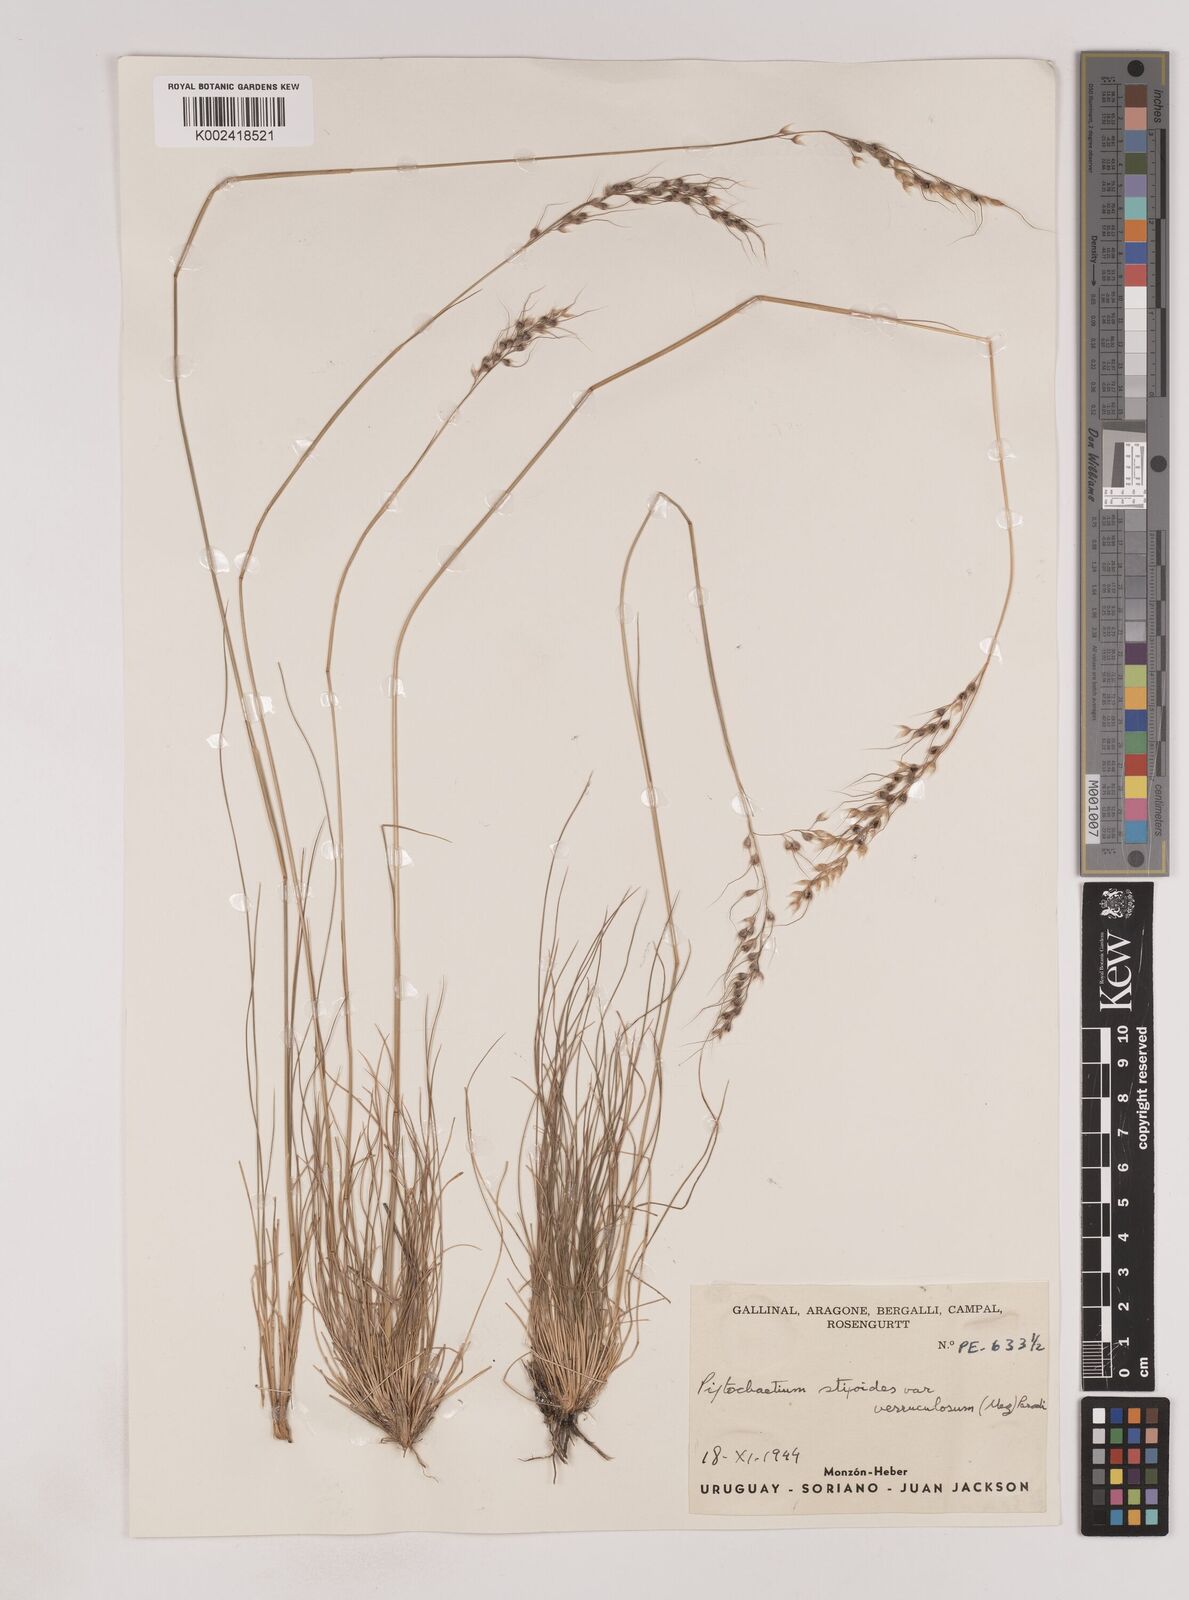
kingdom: Plantae
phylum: Tracheophyta
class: Liliopsida
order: Poales
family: Poaceae
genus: Piptochaetium
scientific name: Piptochaetium stipoides
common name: Purple speargrass
